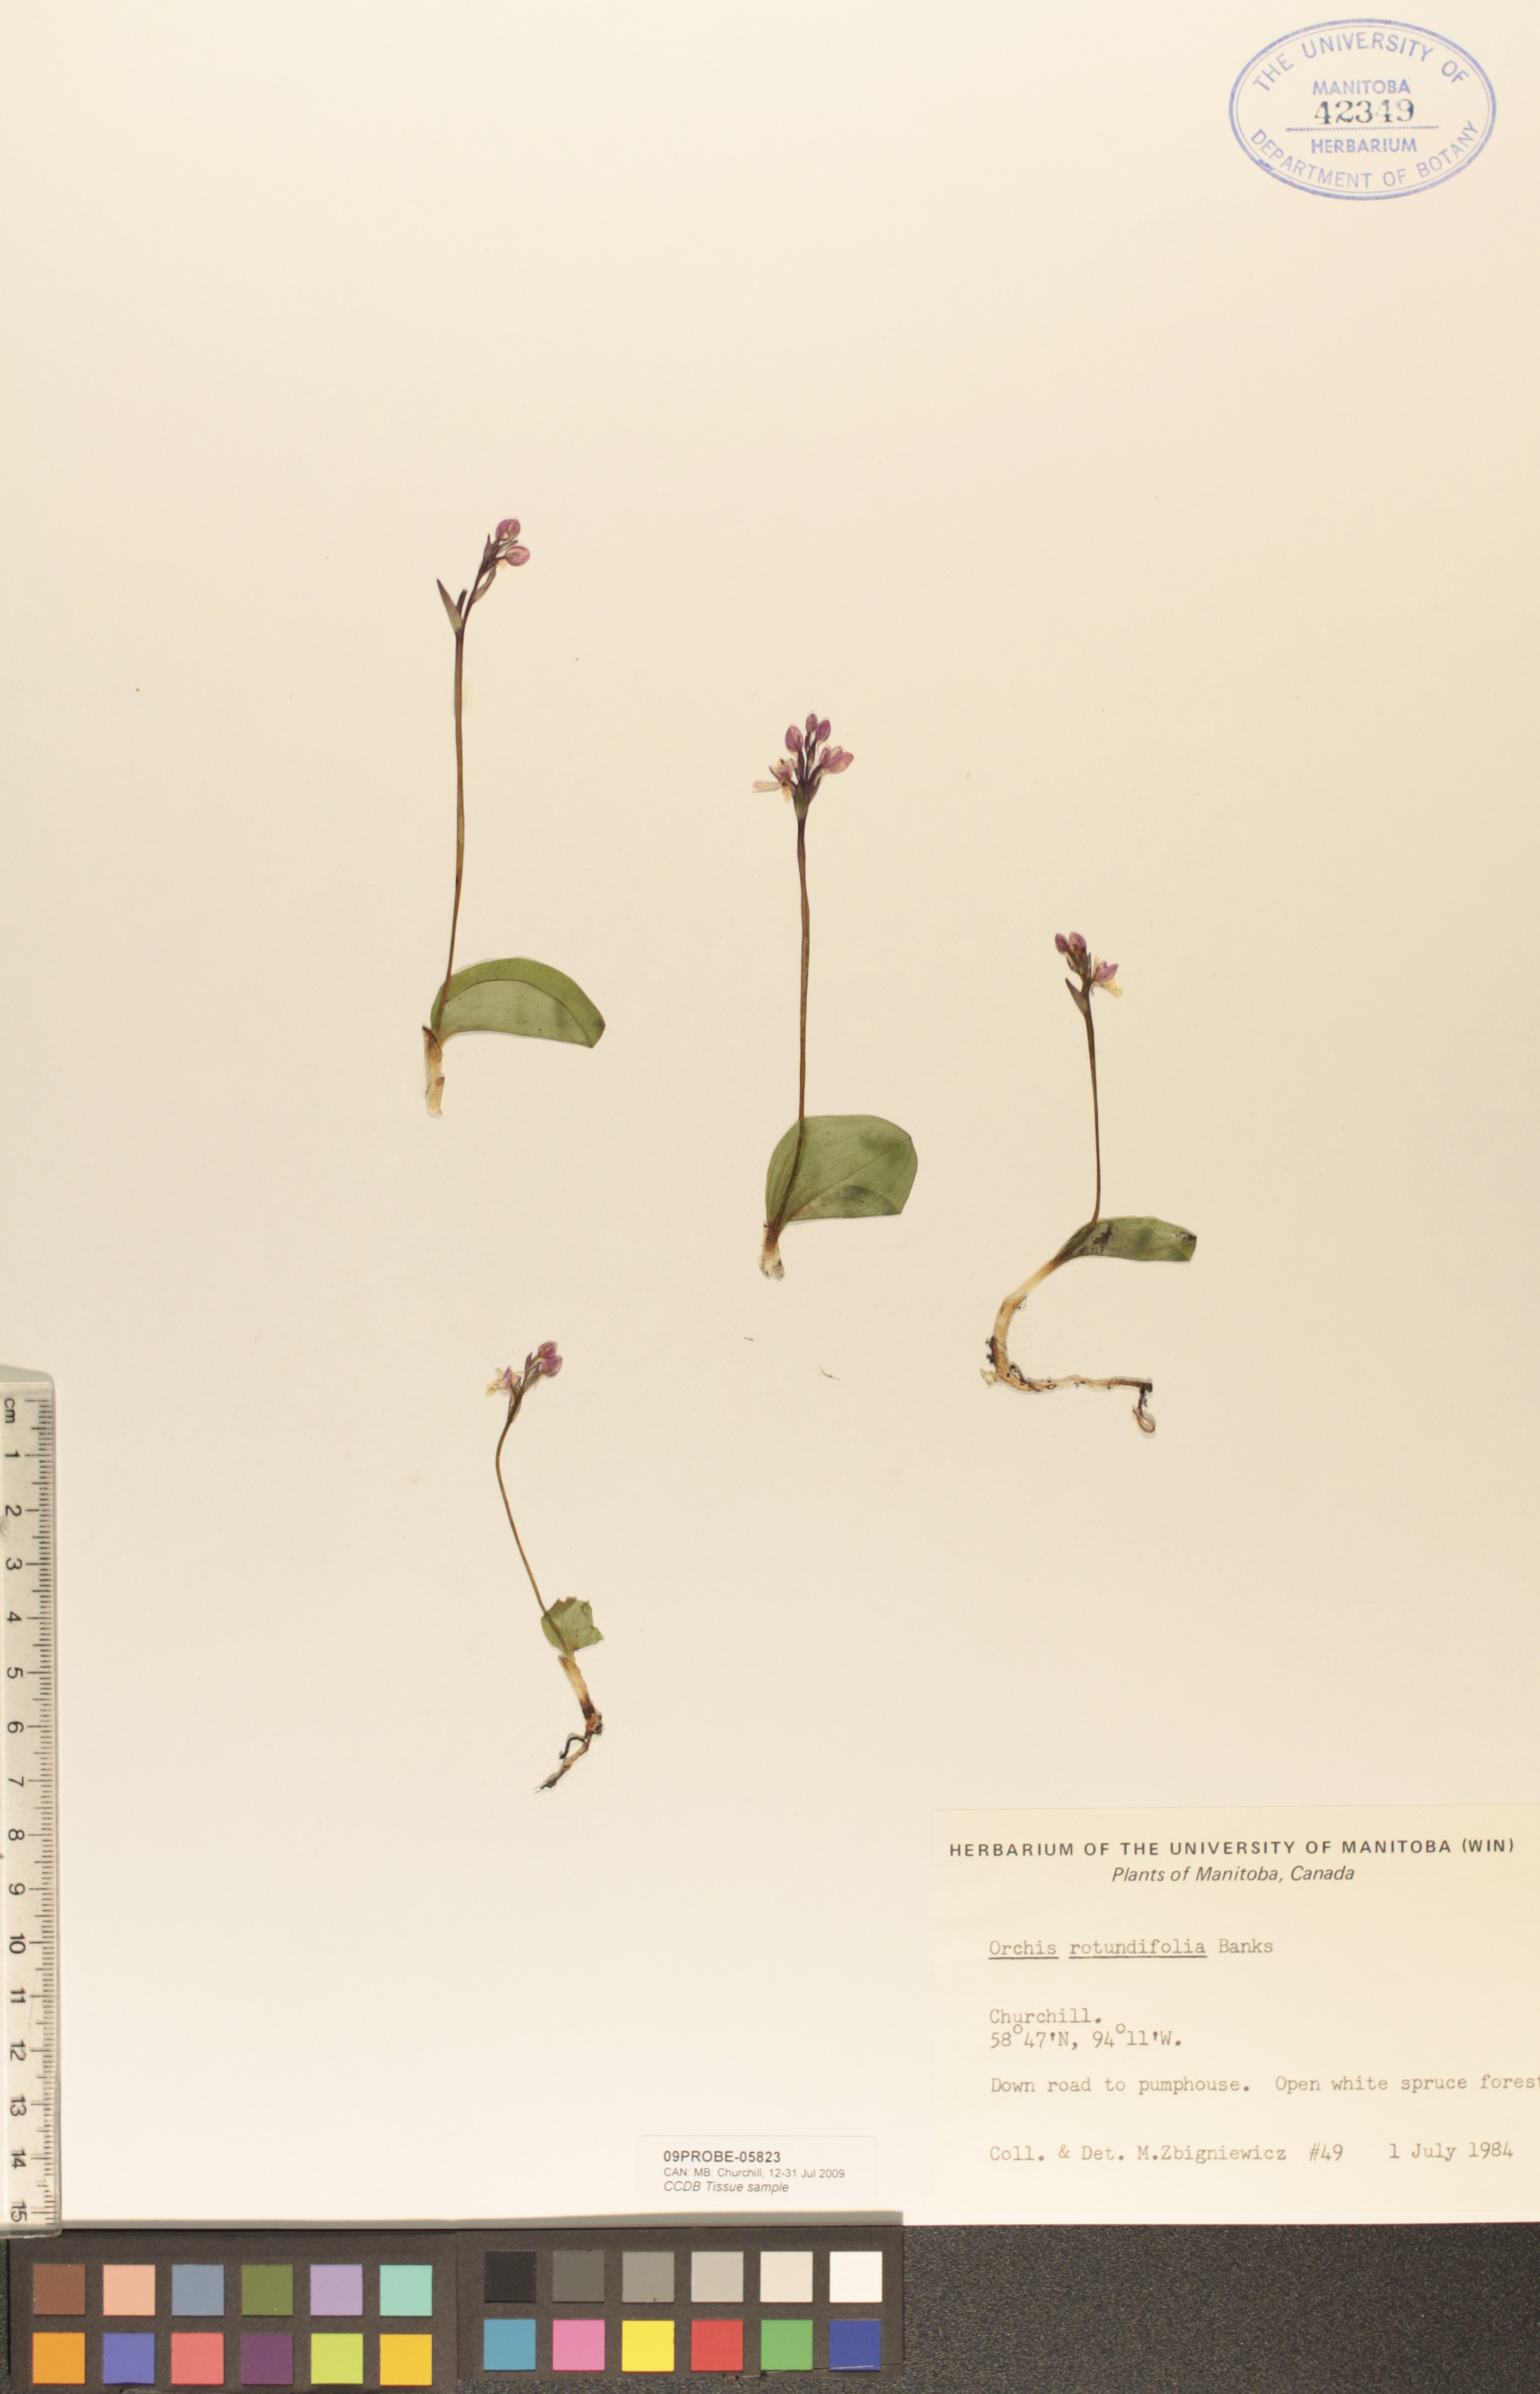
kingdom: Plantae
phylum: Tracheophyta
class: Liliopsida
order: Asparagales
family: Orchidaceae
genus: Galearis
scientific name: Galearis rotundifolia
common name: One-leaved orchis
